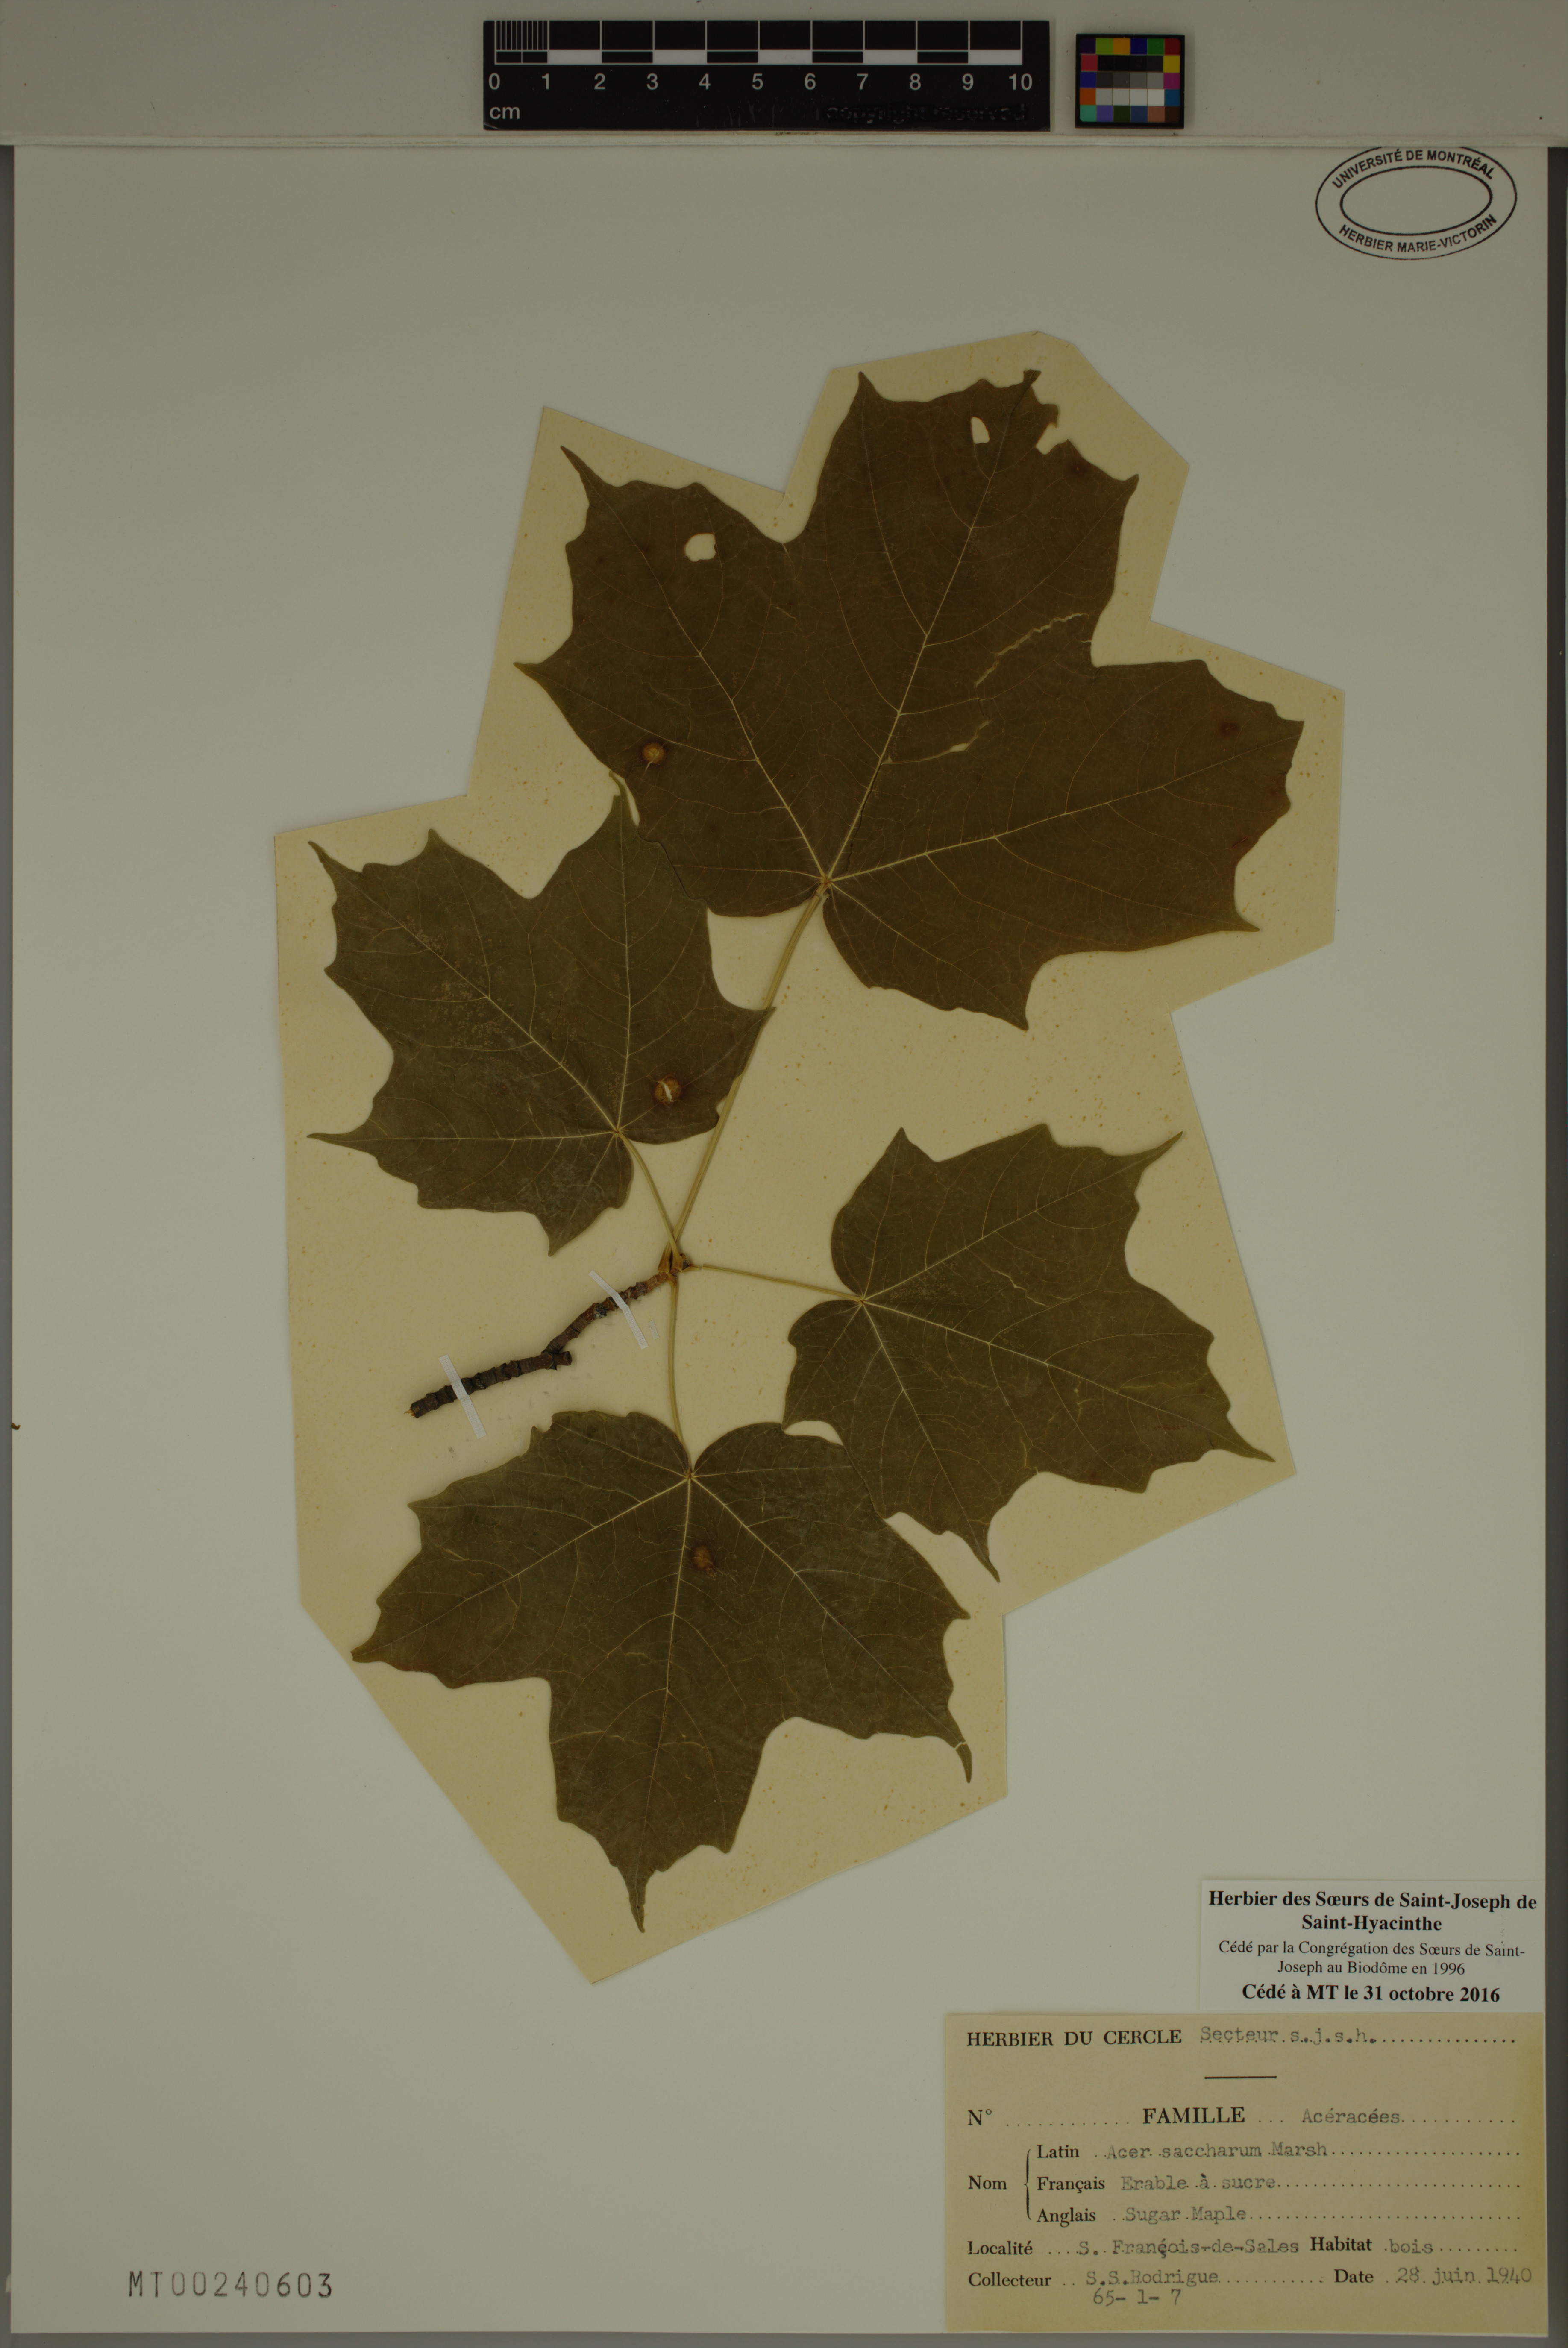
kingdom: Plantae
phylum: Tracheophyta
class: Magnoliopsida
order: Sapindales
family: Sapindaceae
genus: Acer
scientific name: Acer saccharum
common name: Sugar maple
